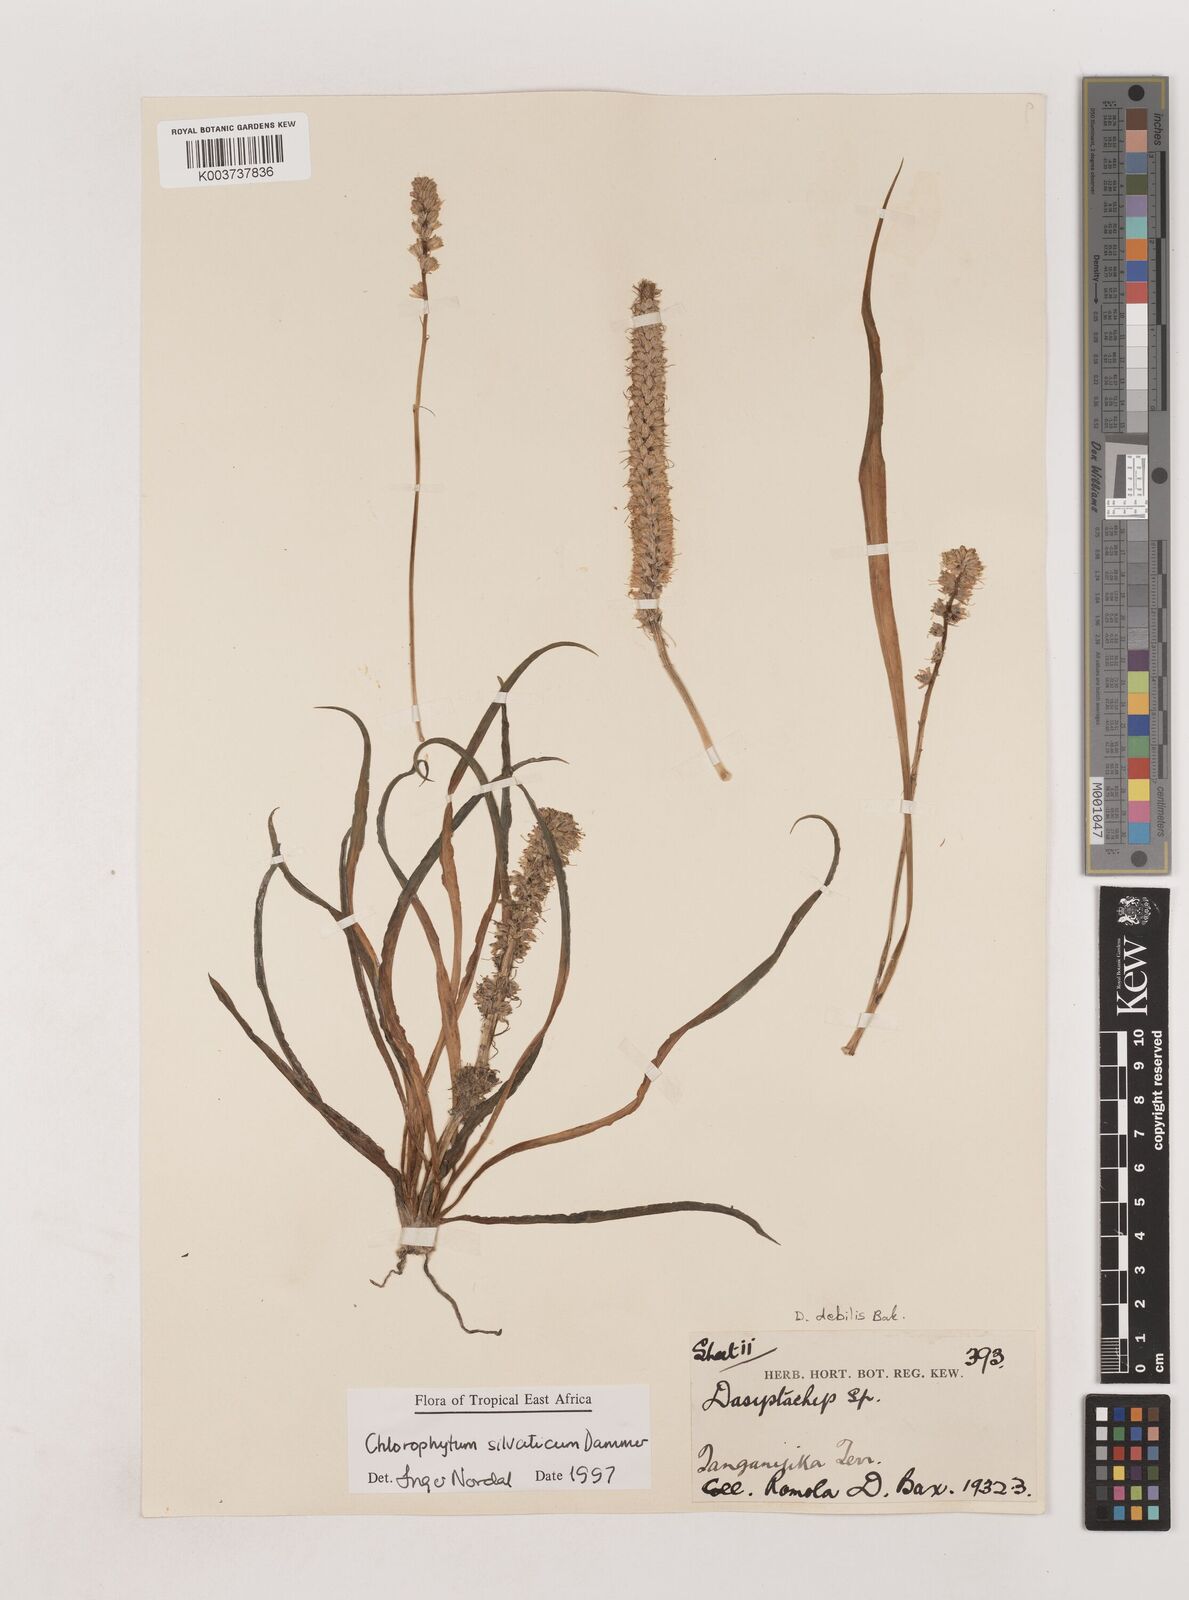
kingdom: Plantae
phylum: Tracheophyta
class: Liliopsida
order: Asparagales
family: Asparagaceae
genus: Chlorophytum
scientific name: Chlorophytum africanum
